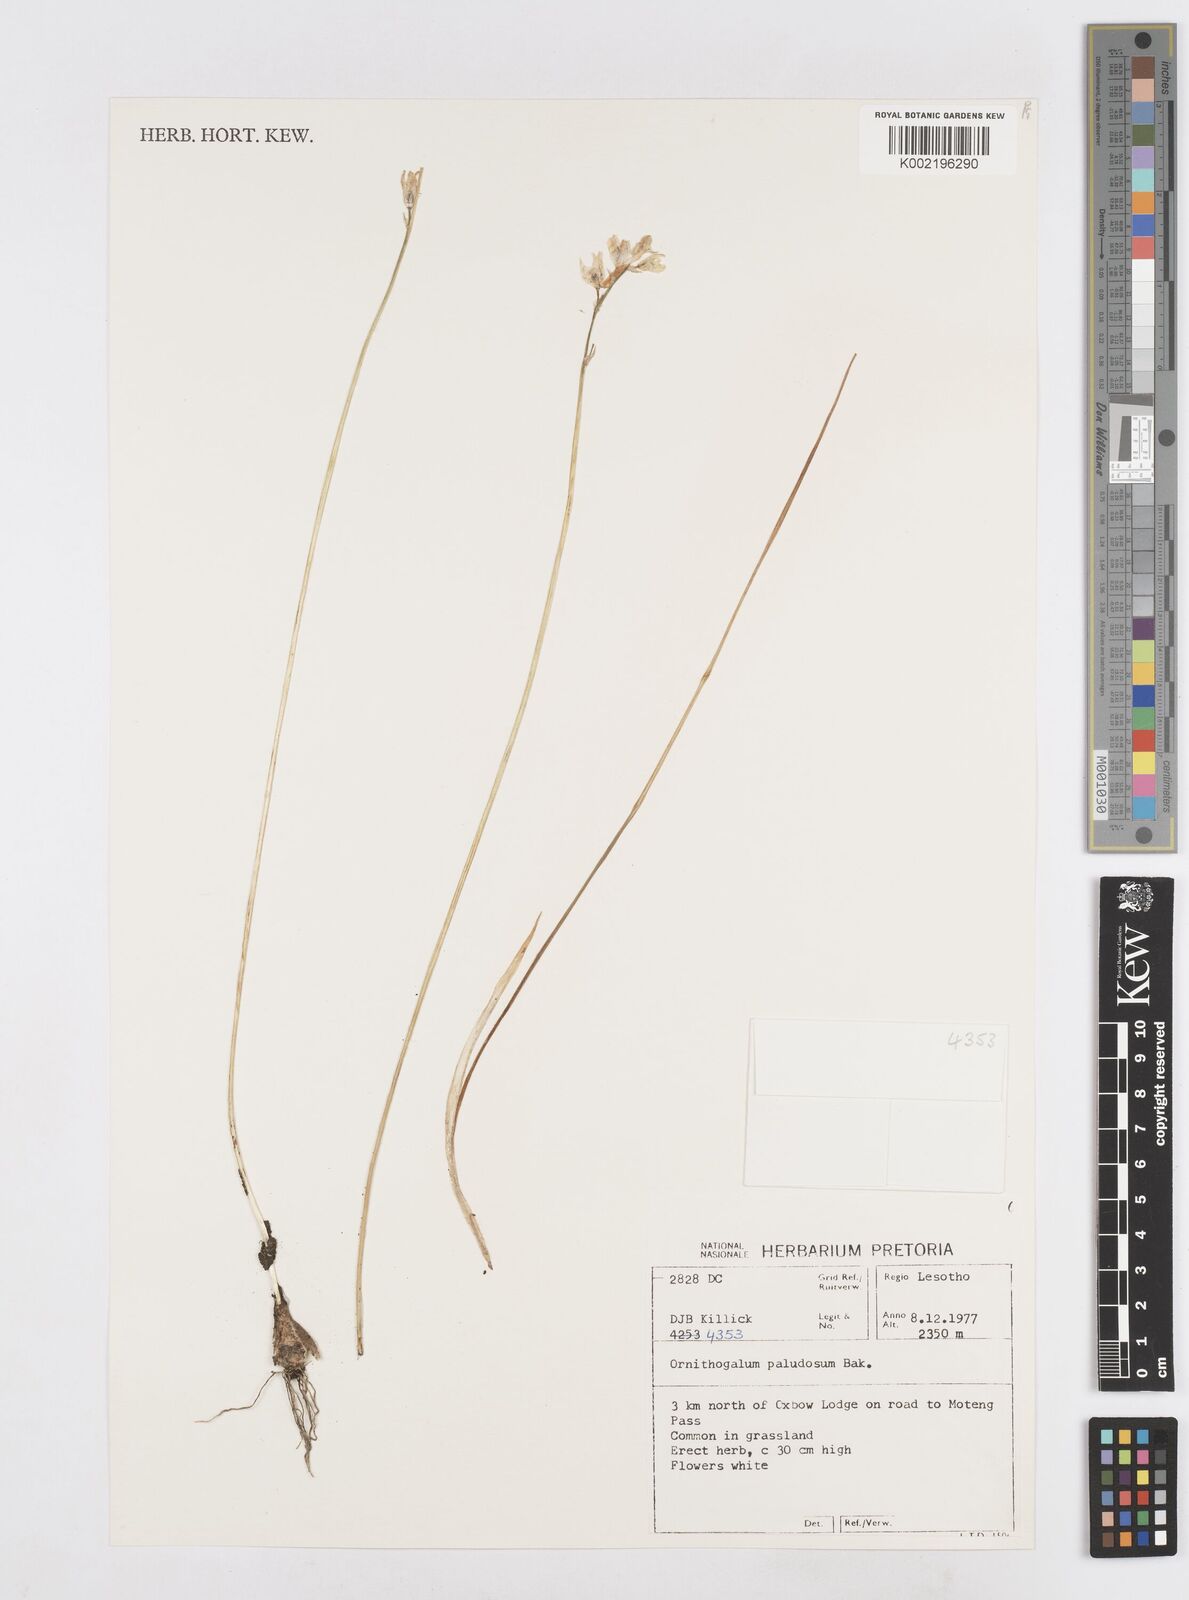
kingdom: Plantae
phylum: Tracheophyta
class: Liliopsida
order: Asparagales
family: Asparagaceae
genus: Ornithogalum
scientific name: Ornithogalum paludosum
